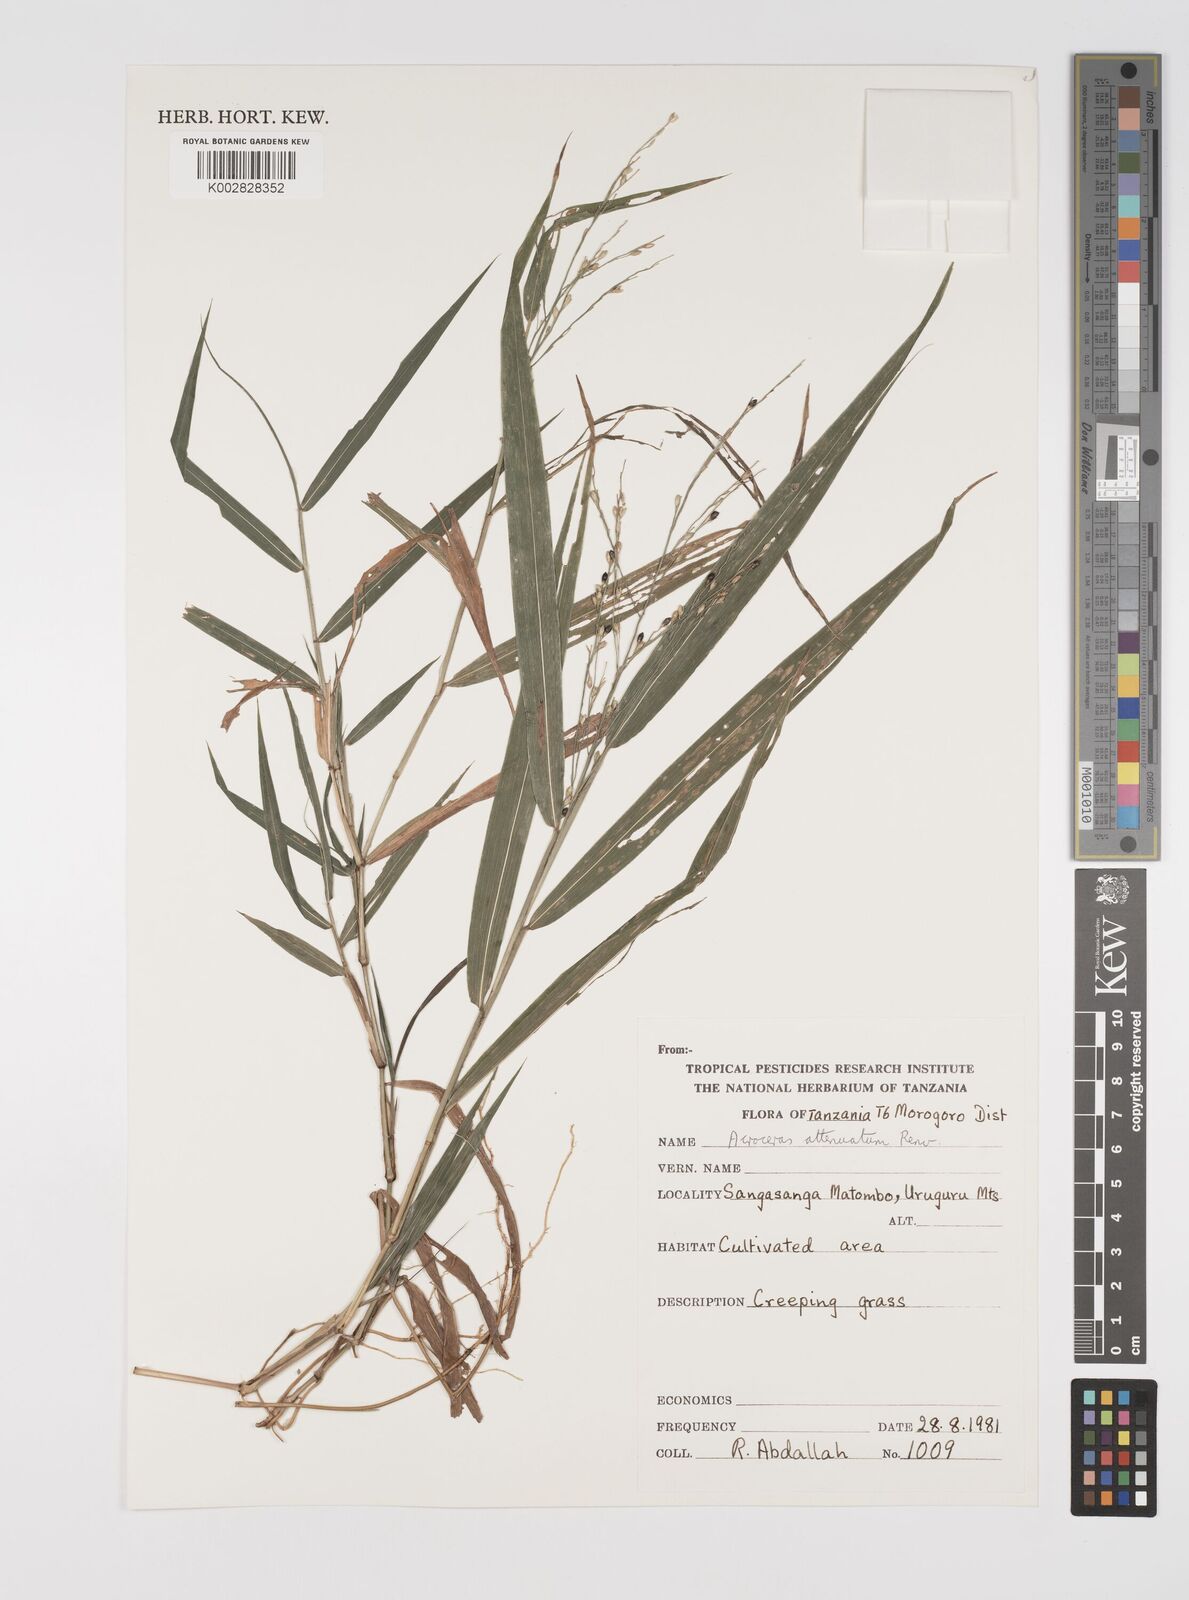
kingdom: Plantae
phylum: Tracheophyta
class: Liliopsida
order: Poales
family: Poaceae
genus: Acroceras
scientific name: Acroceras attenuatum
